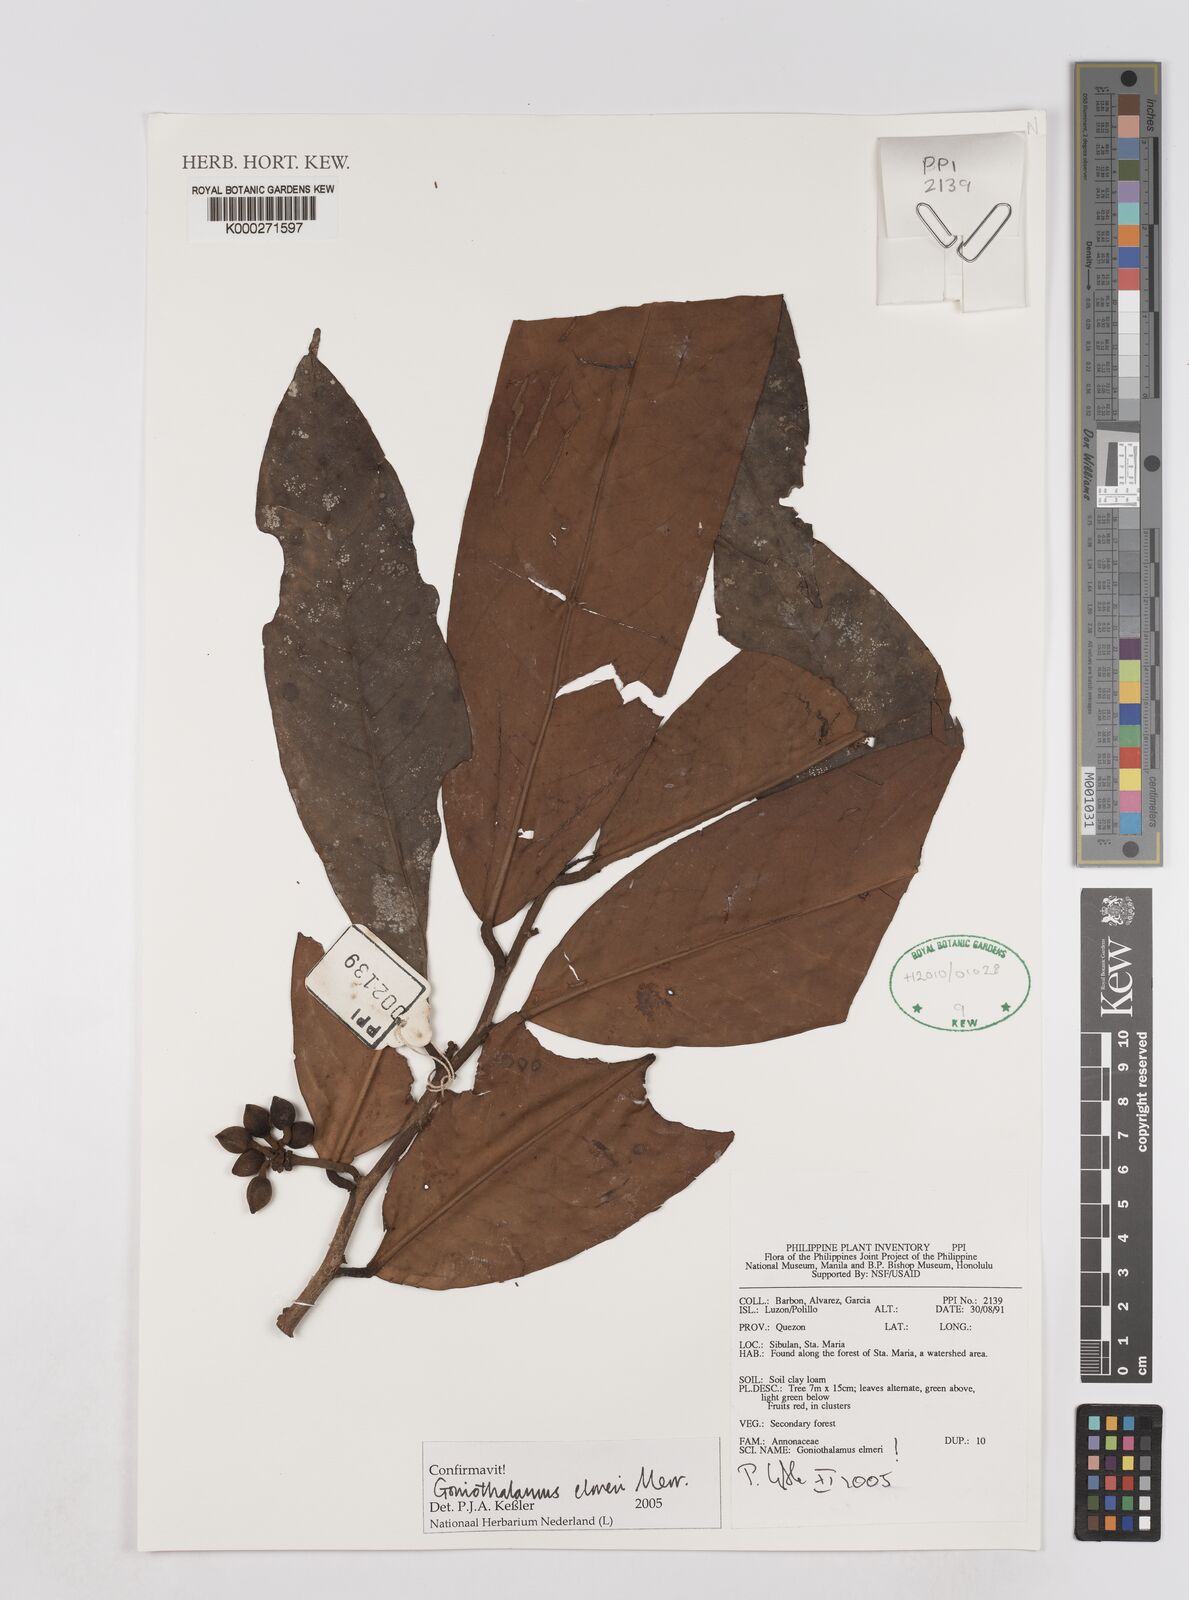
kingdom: Plantae
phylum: Tracheophyta
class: Magnoliopsida
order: Magnoliales
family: Annonaceae
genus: Goniothalamus
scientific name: Goniothalamus elmeri
